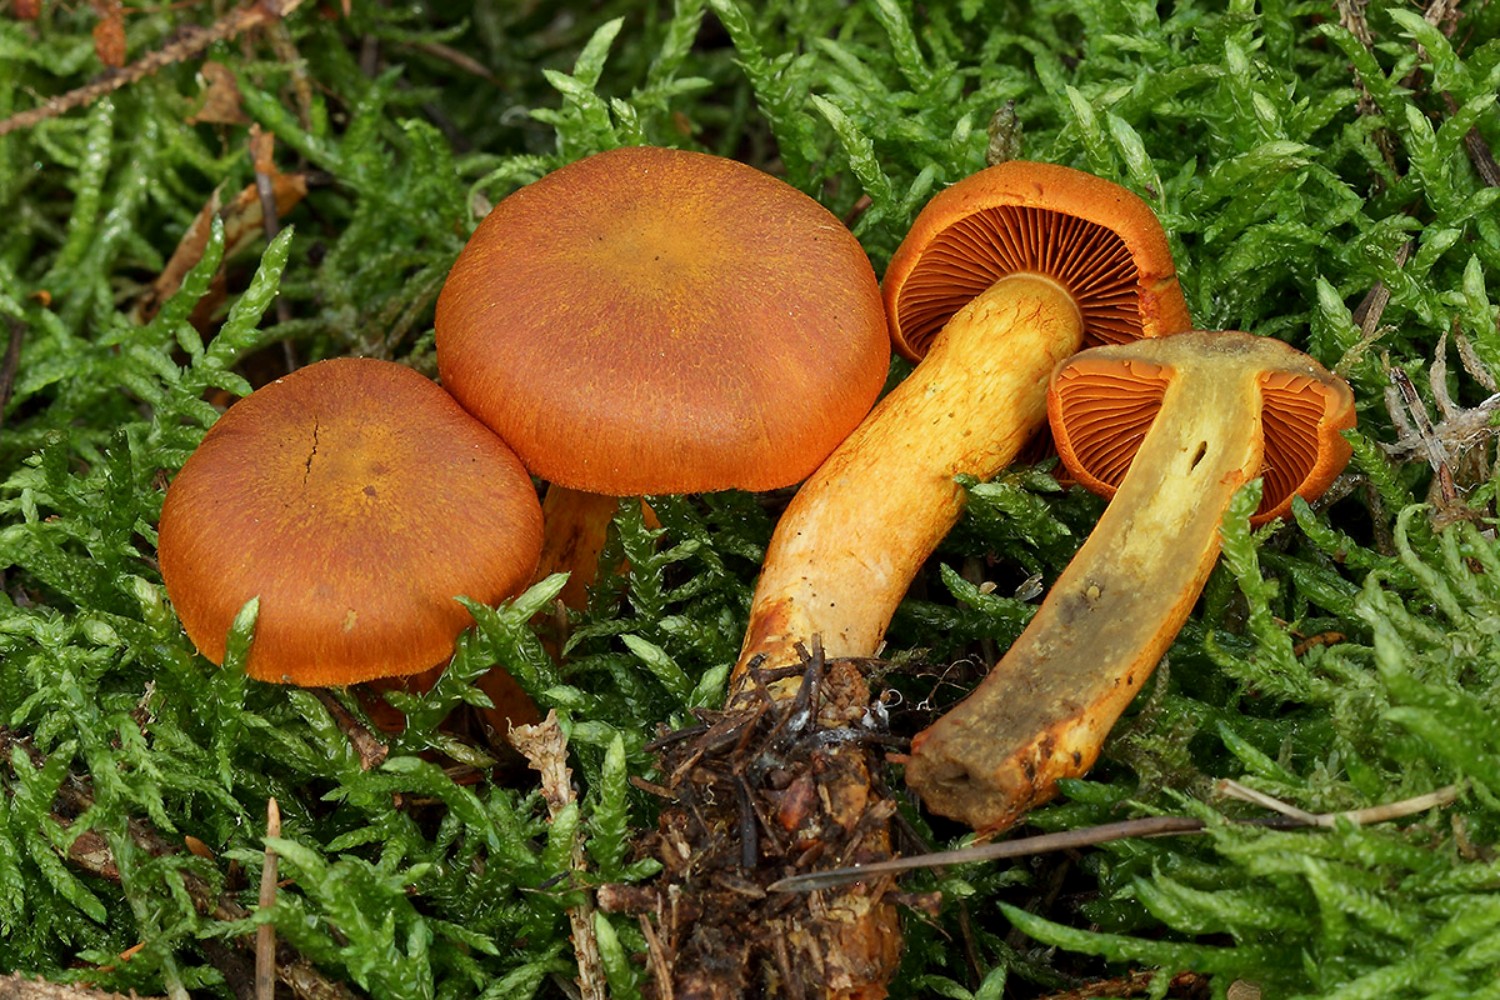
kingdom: Fungi
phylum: Basidiomycota
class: Agaricomycetes
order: Agaricales
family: Cortinariaceae
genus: Cortinarius
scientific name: Cortinarius malicorius
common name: grønkødet slørhat
